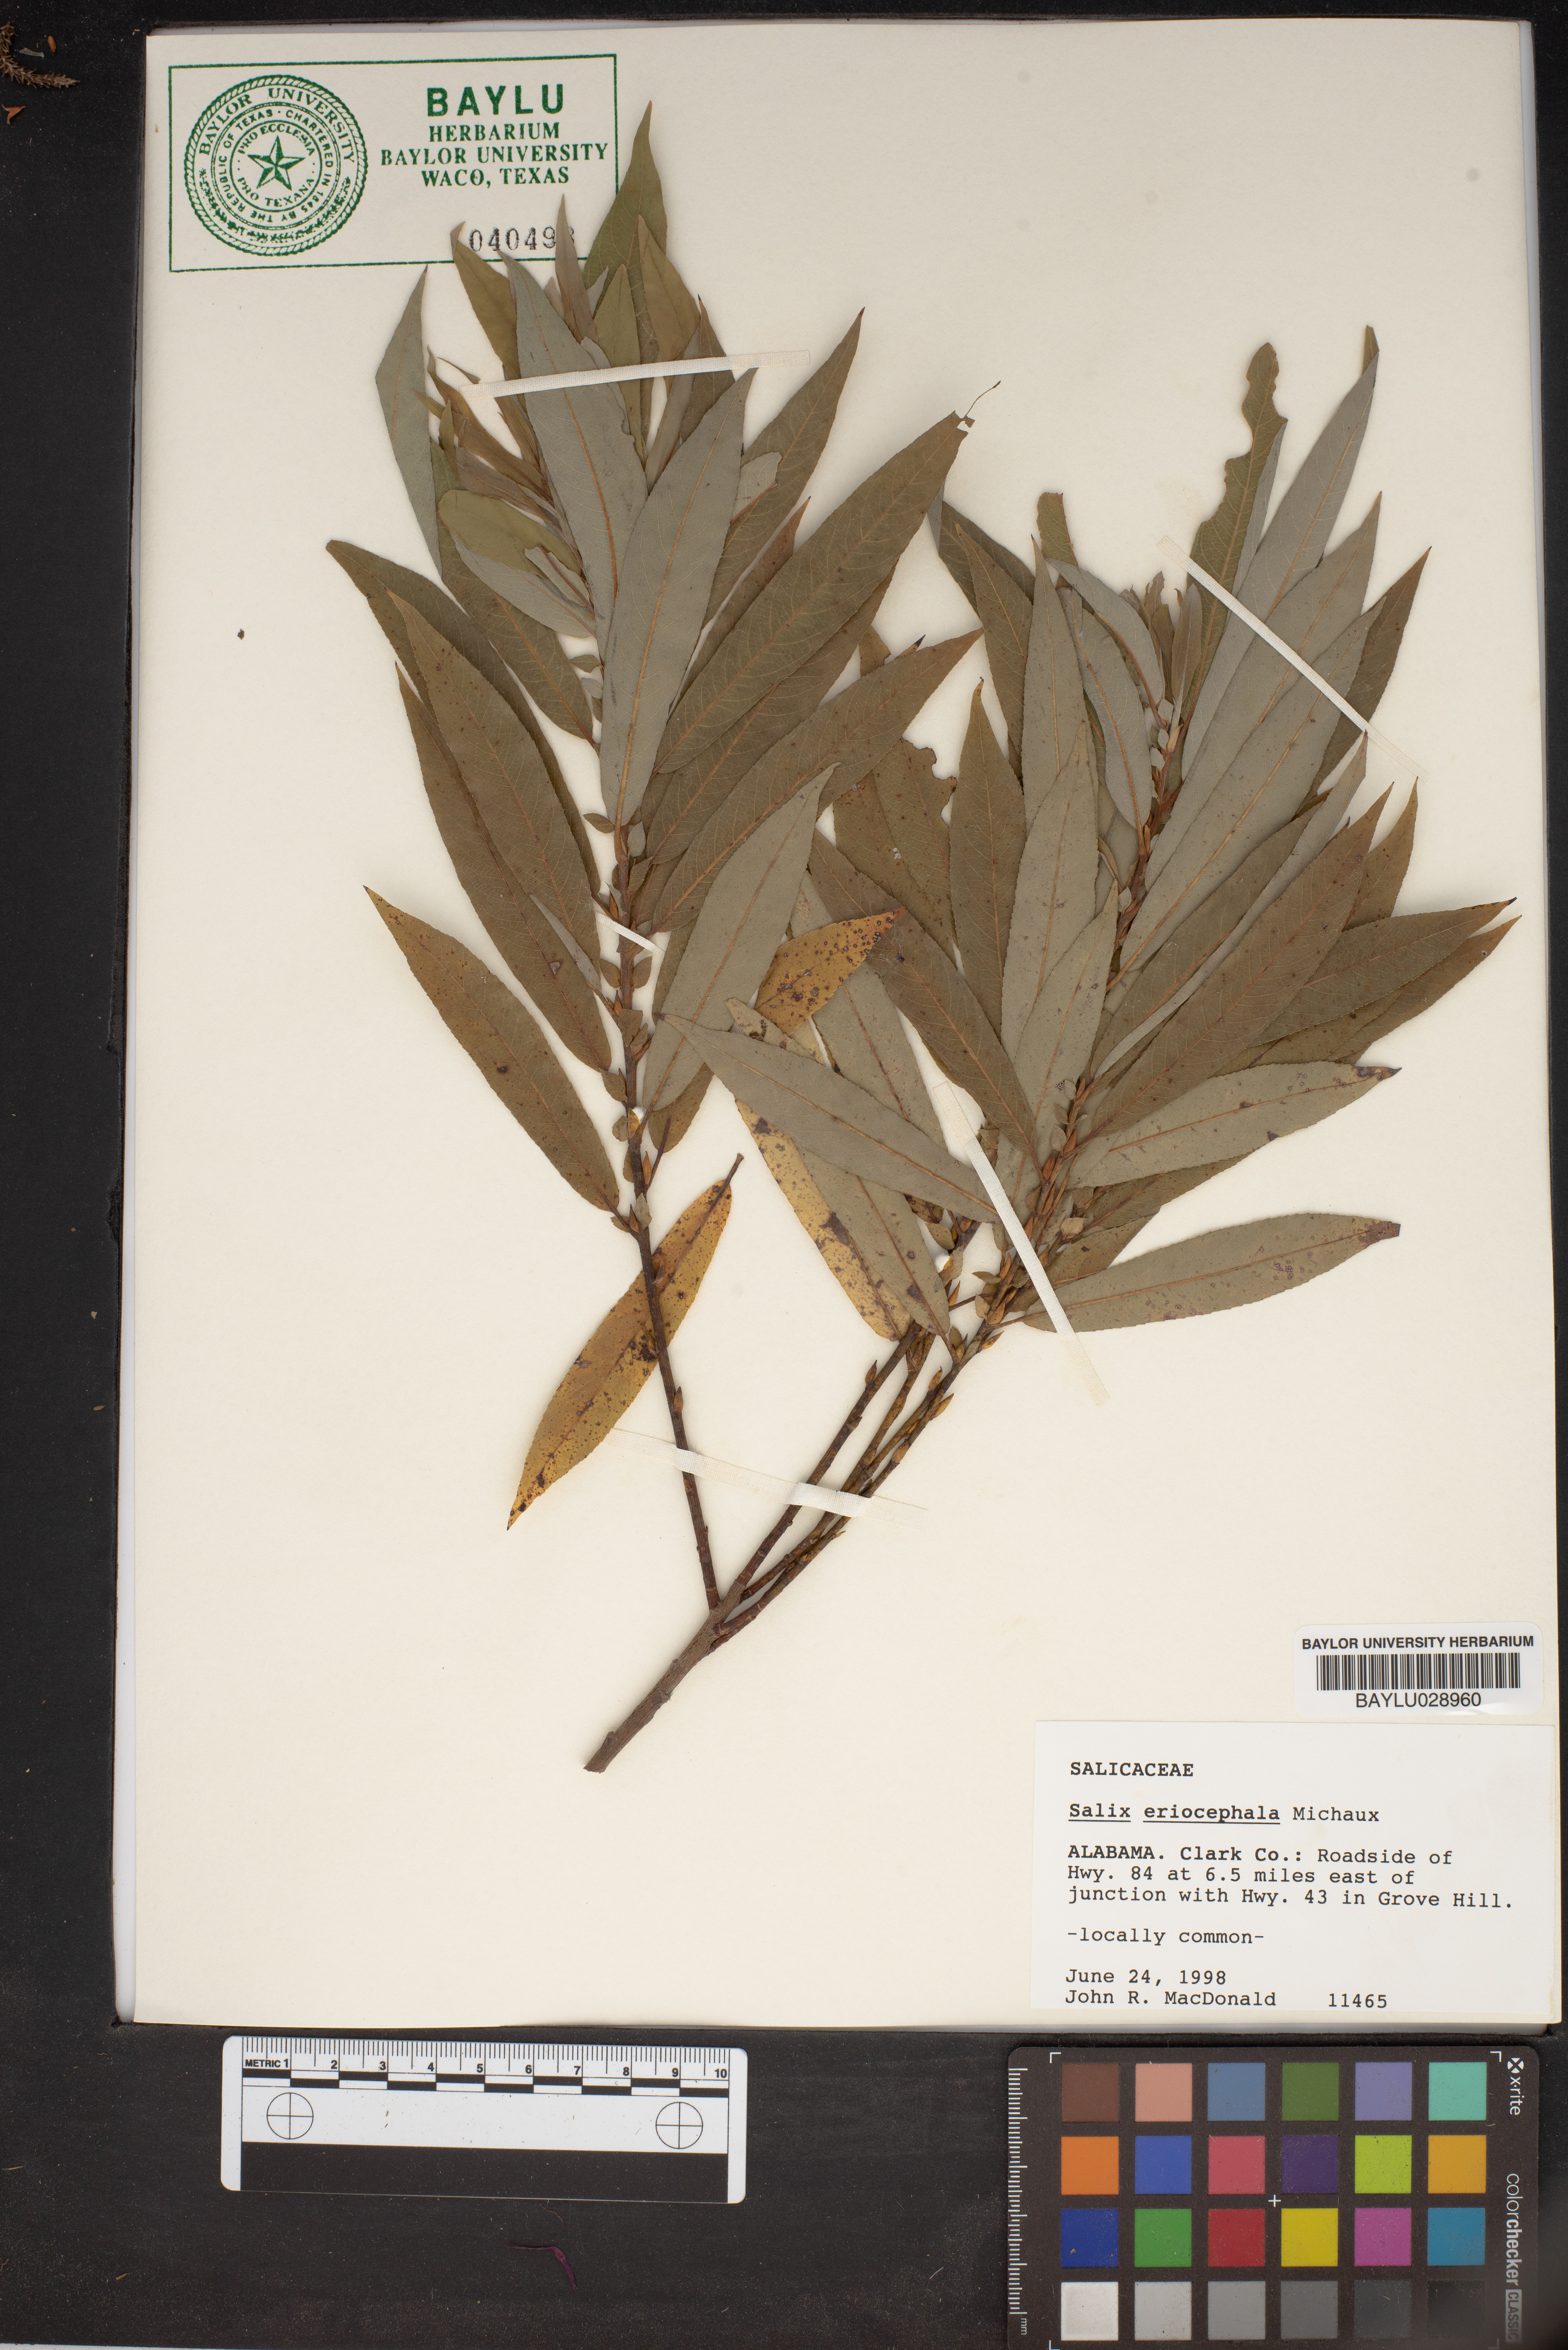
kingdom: Plantae
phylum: Tracheophyta
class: Magnoliopsida
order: Malpighiales
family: Salicaceae
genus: Salix
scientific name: Salix eriocephala
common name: Heart-leaved willow
